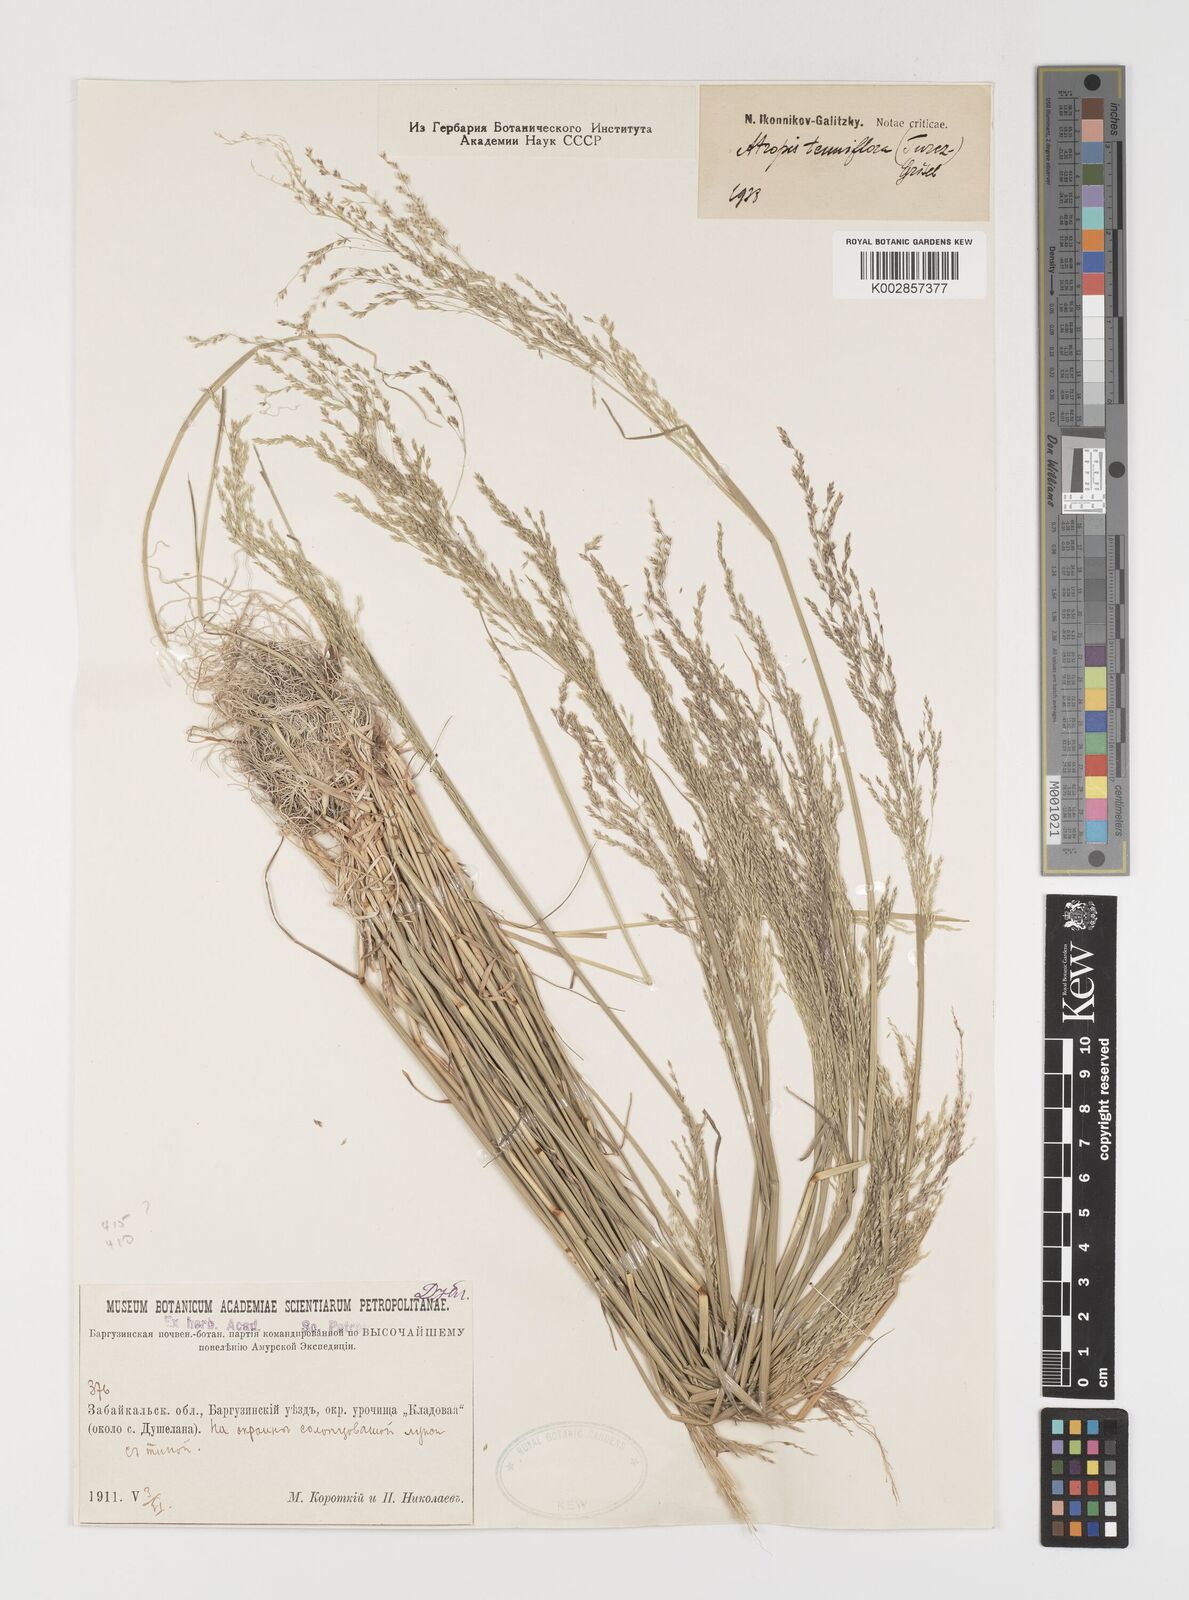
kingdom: Plantae
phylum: Tracheophyta
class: Liliopsida
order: Poales
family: Poaceae
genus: Puccinellia
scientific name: Puccinellia tenuiflora
